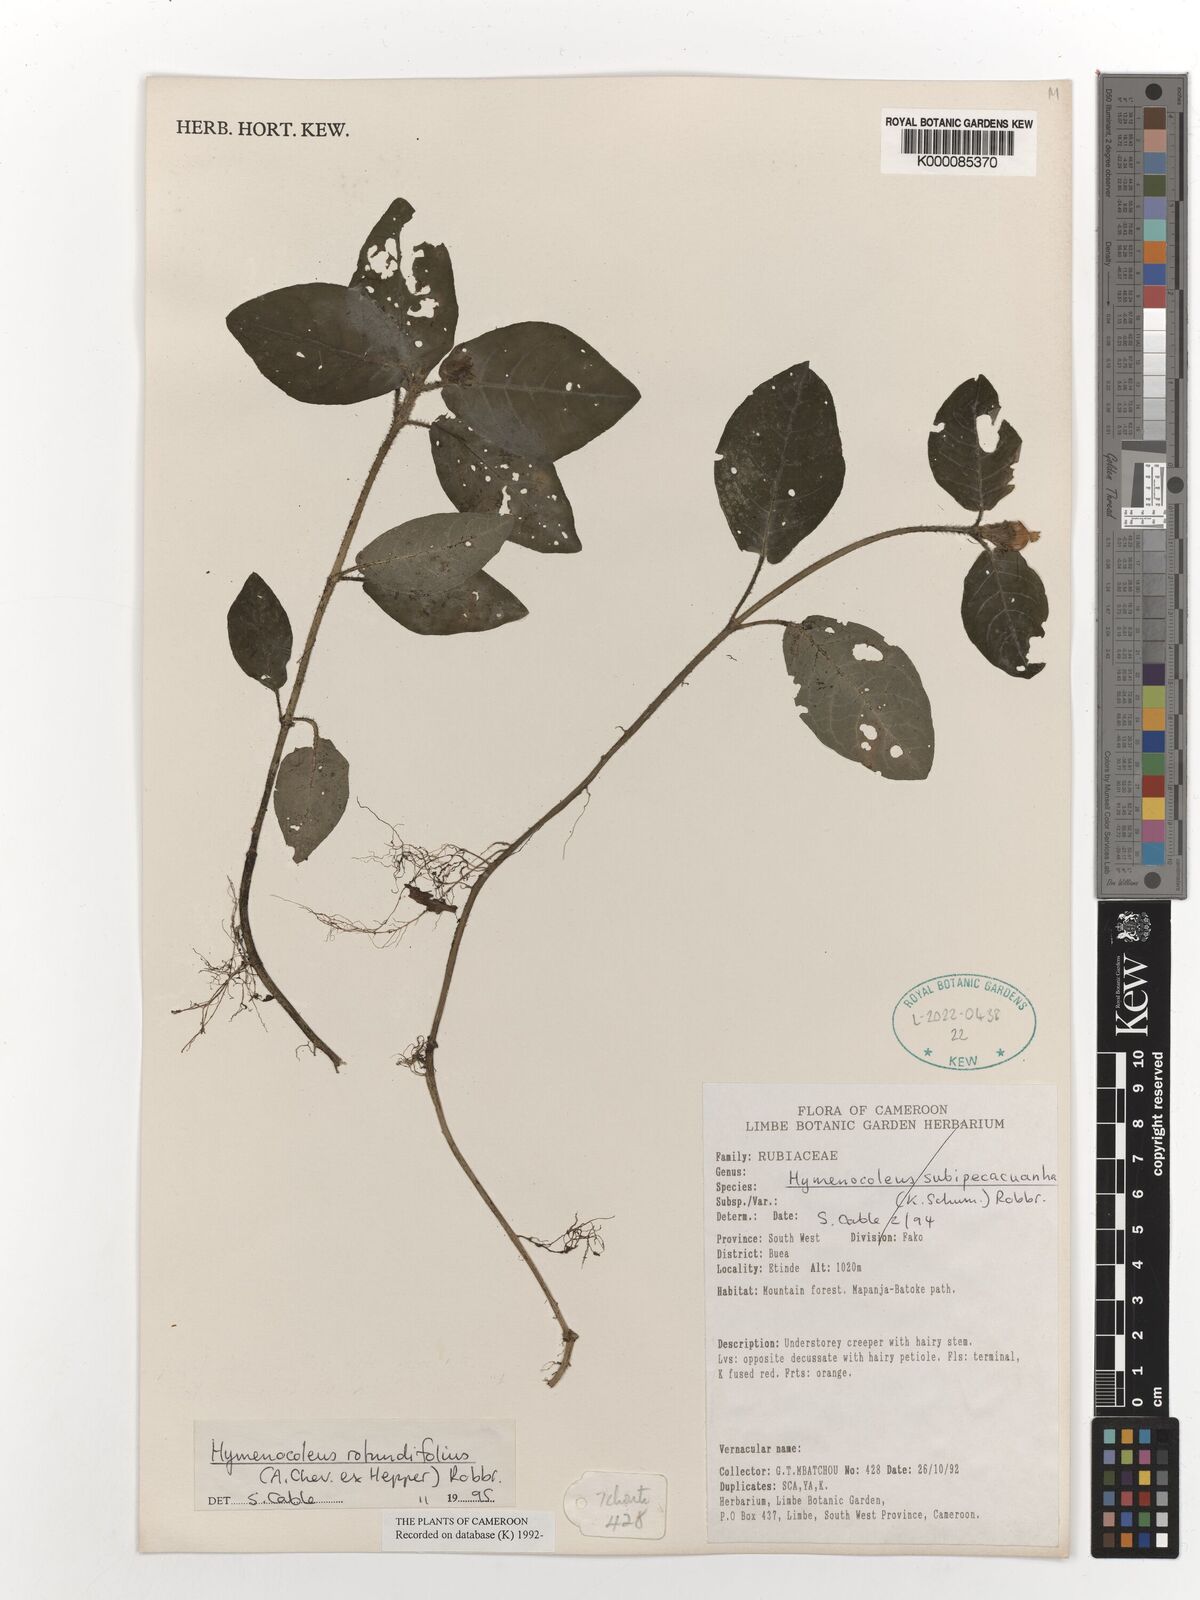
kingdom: Plantae
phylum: Tracheophyta
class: Magnoliopsida
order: Gentianales
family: Rubiaceae
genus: Hymenocoleus
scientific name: Hymenocoleus rotundifolius
